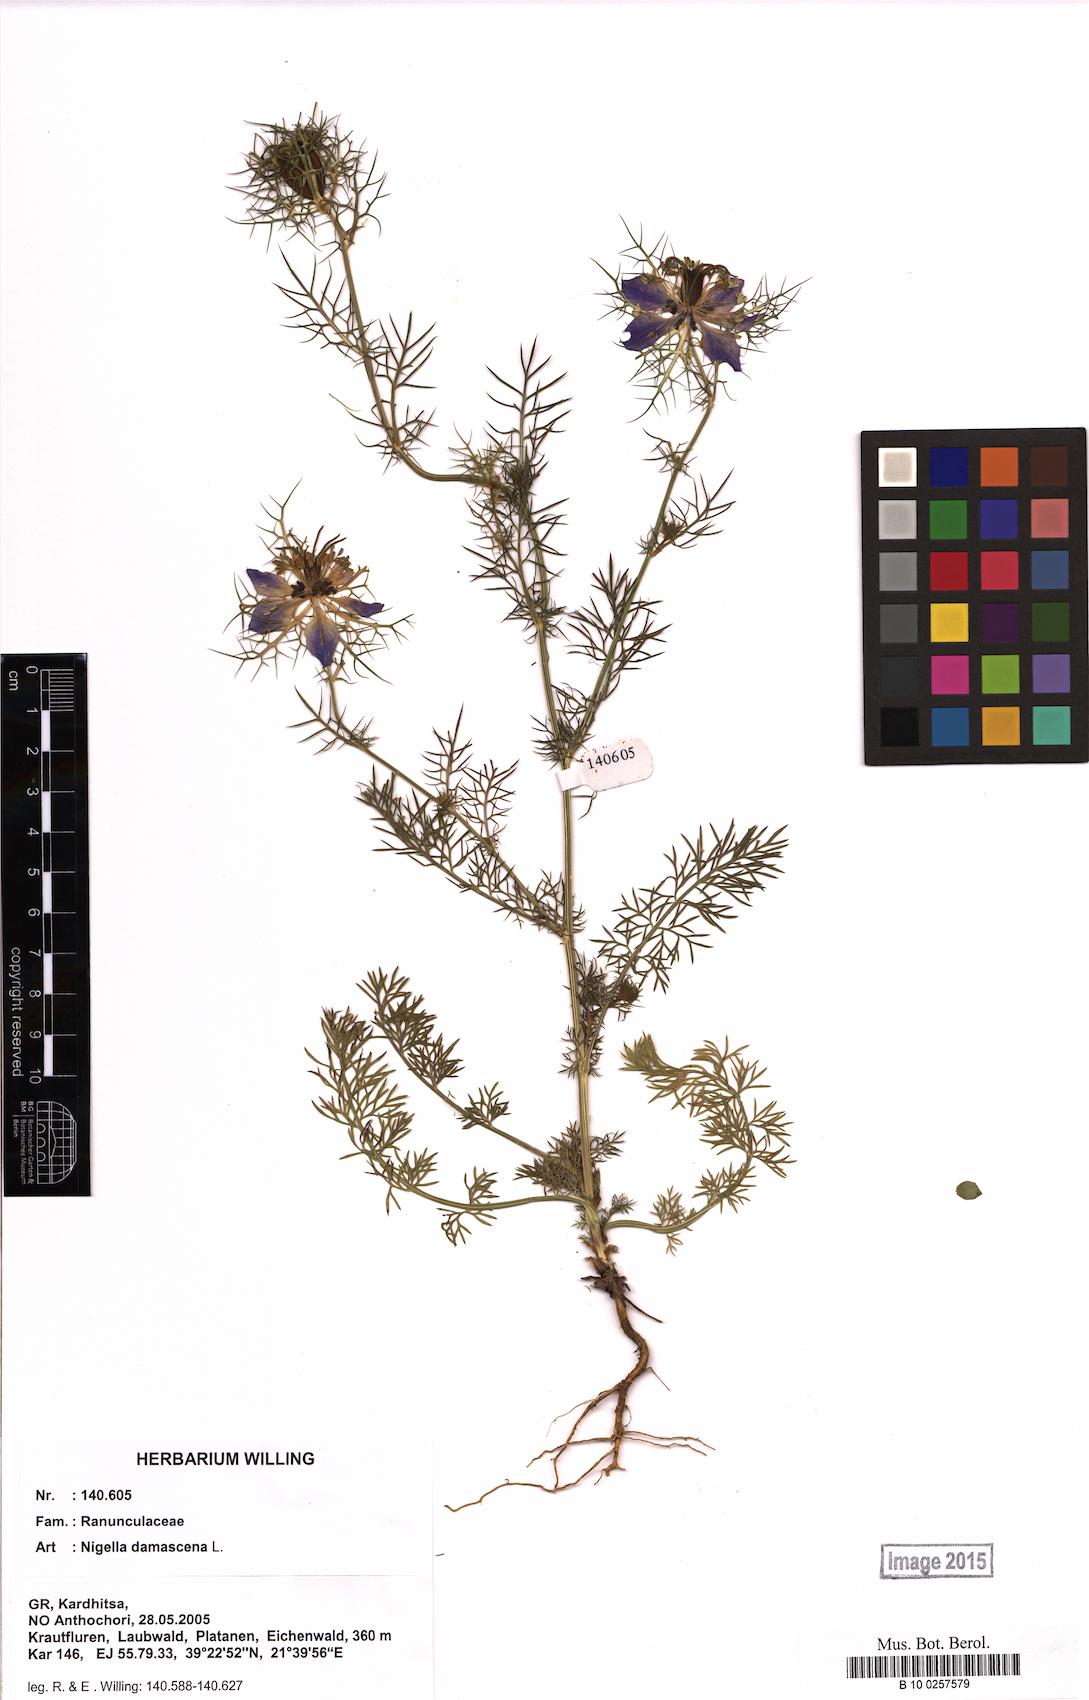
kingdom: Plantae
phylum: Tracheophyta
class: Magnoliopsida
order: Ranunculales
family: Ranunculaceae
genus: Nigella
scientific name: Nigella damascena
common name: Love-in-a-mist
